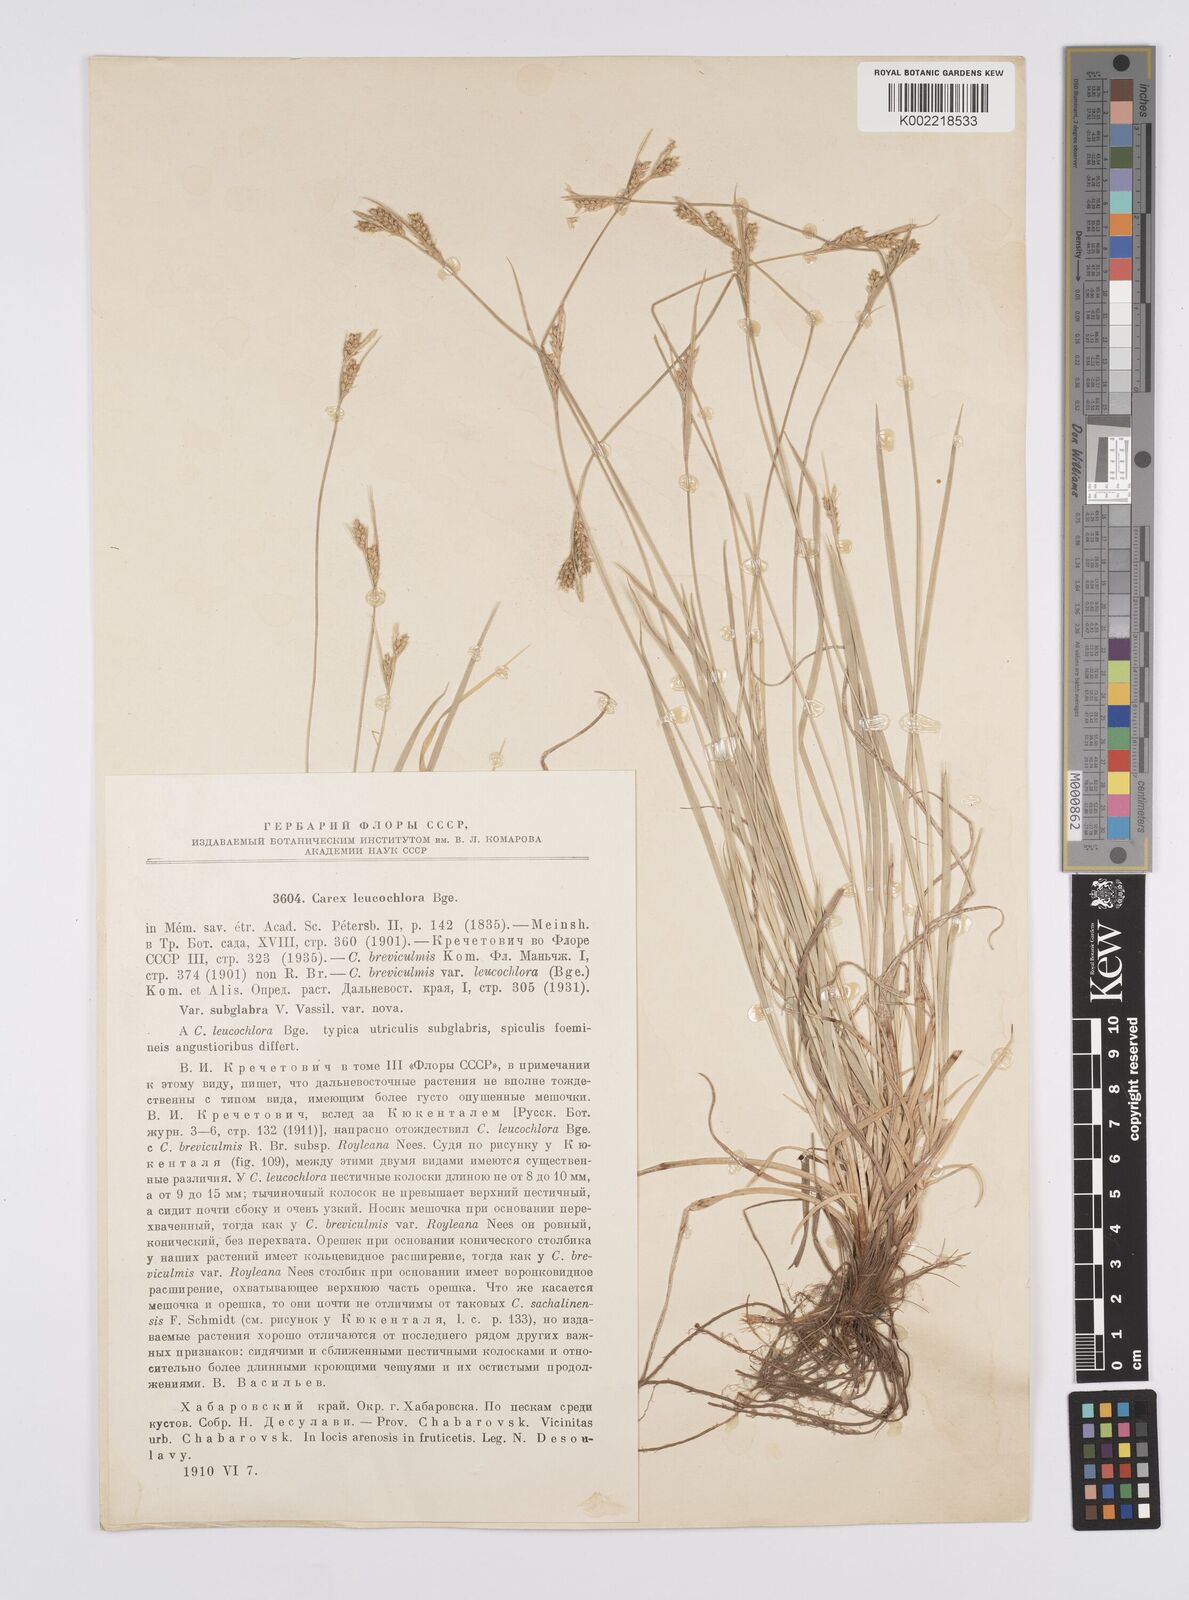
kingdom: Plantae
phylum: Tracheophyta
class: Liliopsida
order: Poales
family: Cyperaceae
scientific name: Cyperaceae
